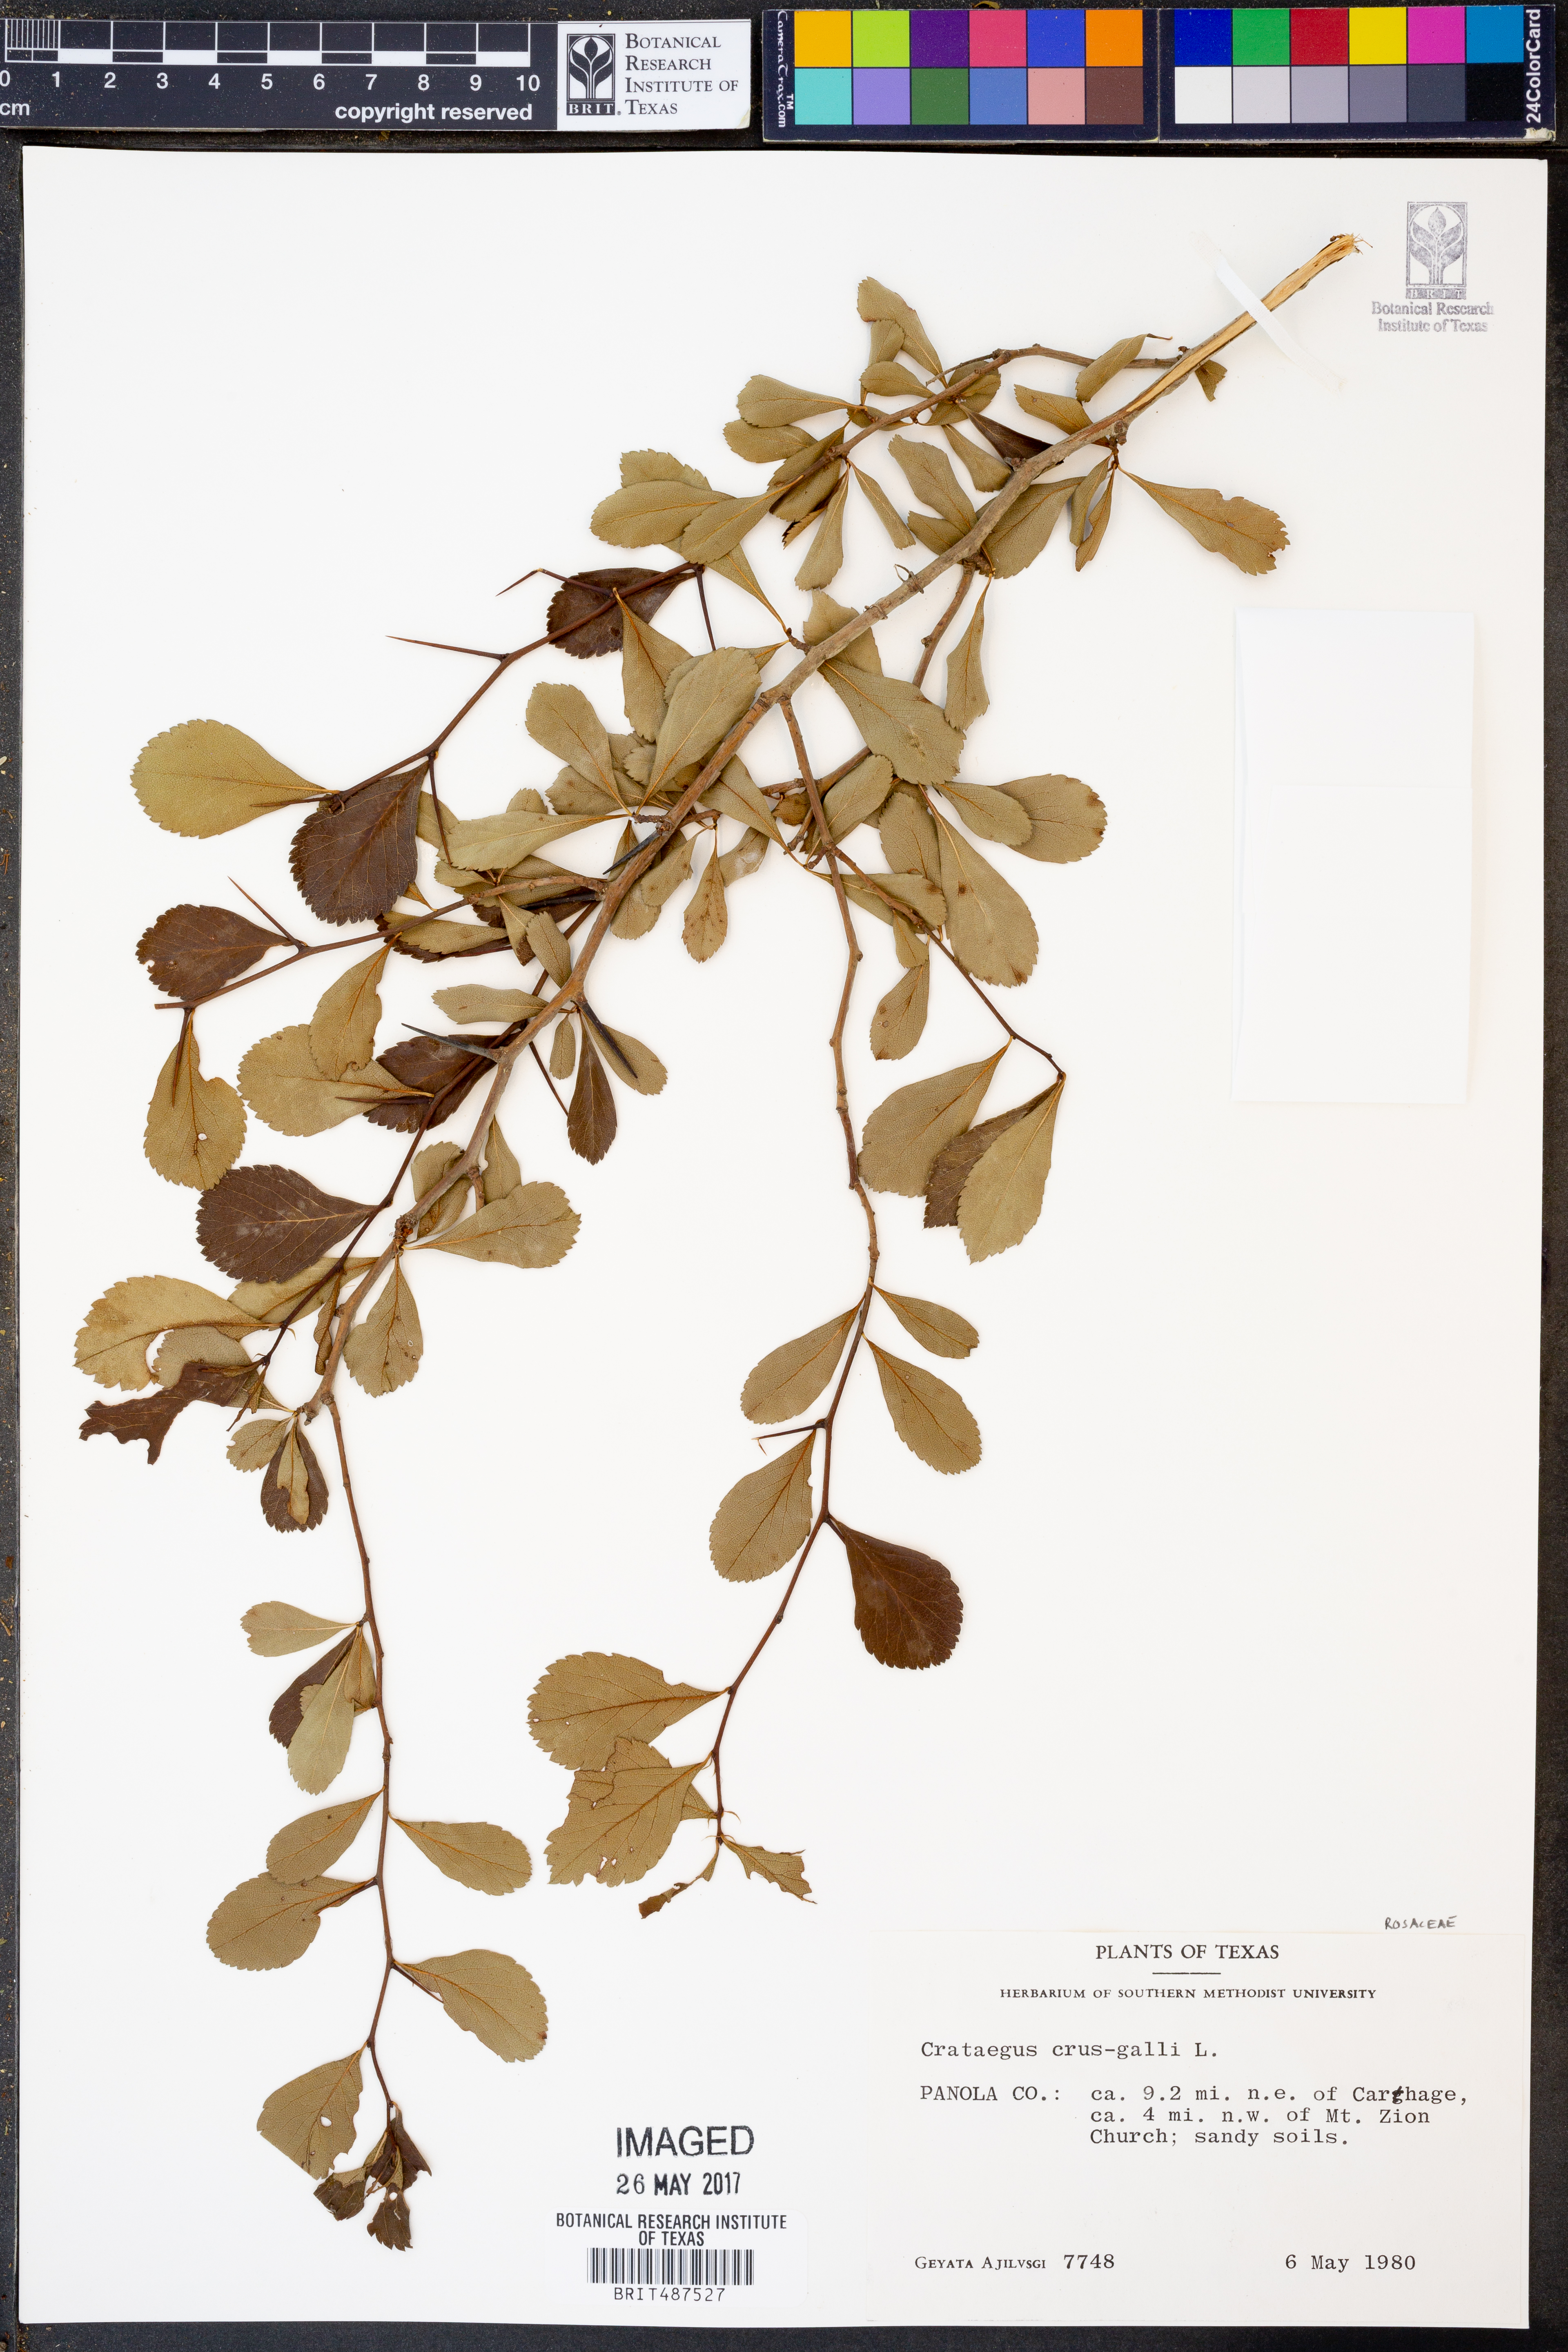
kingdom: Plantae
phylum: Tracheophyta
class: Magnoliopsida
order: Rosales
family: Rosaceae
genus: Crataegus
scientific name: Crataegus crus-galli
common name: Cockspurthorn
